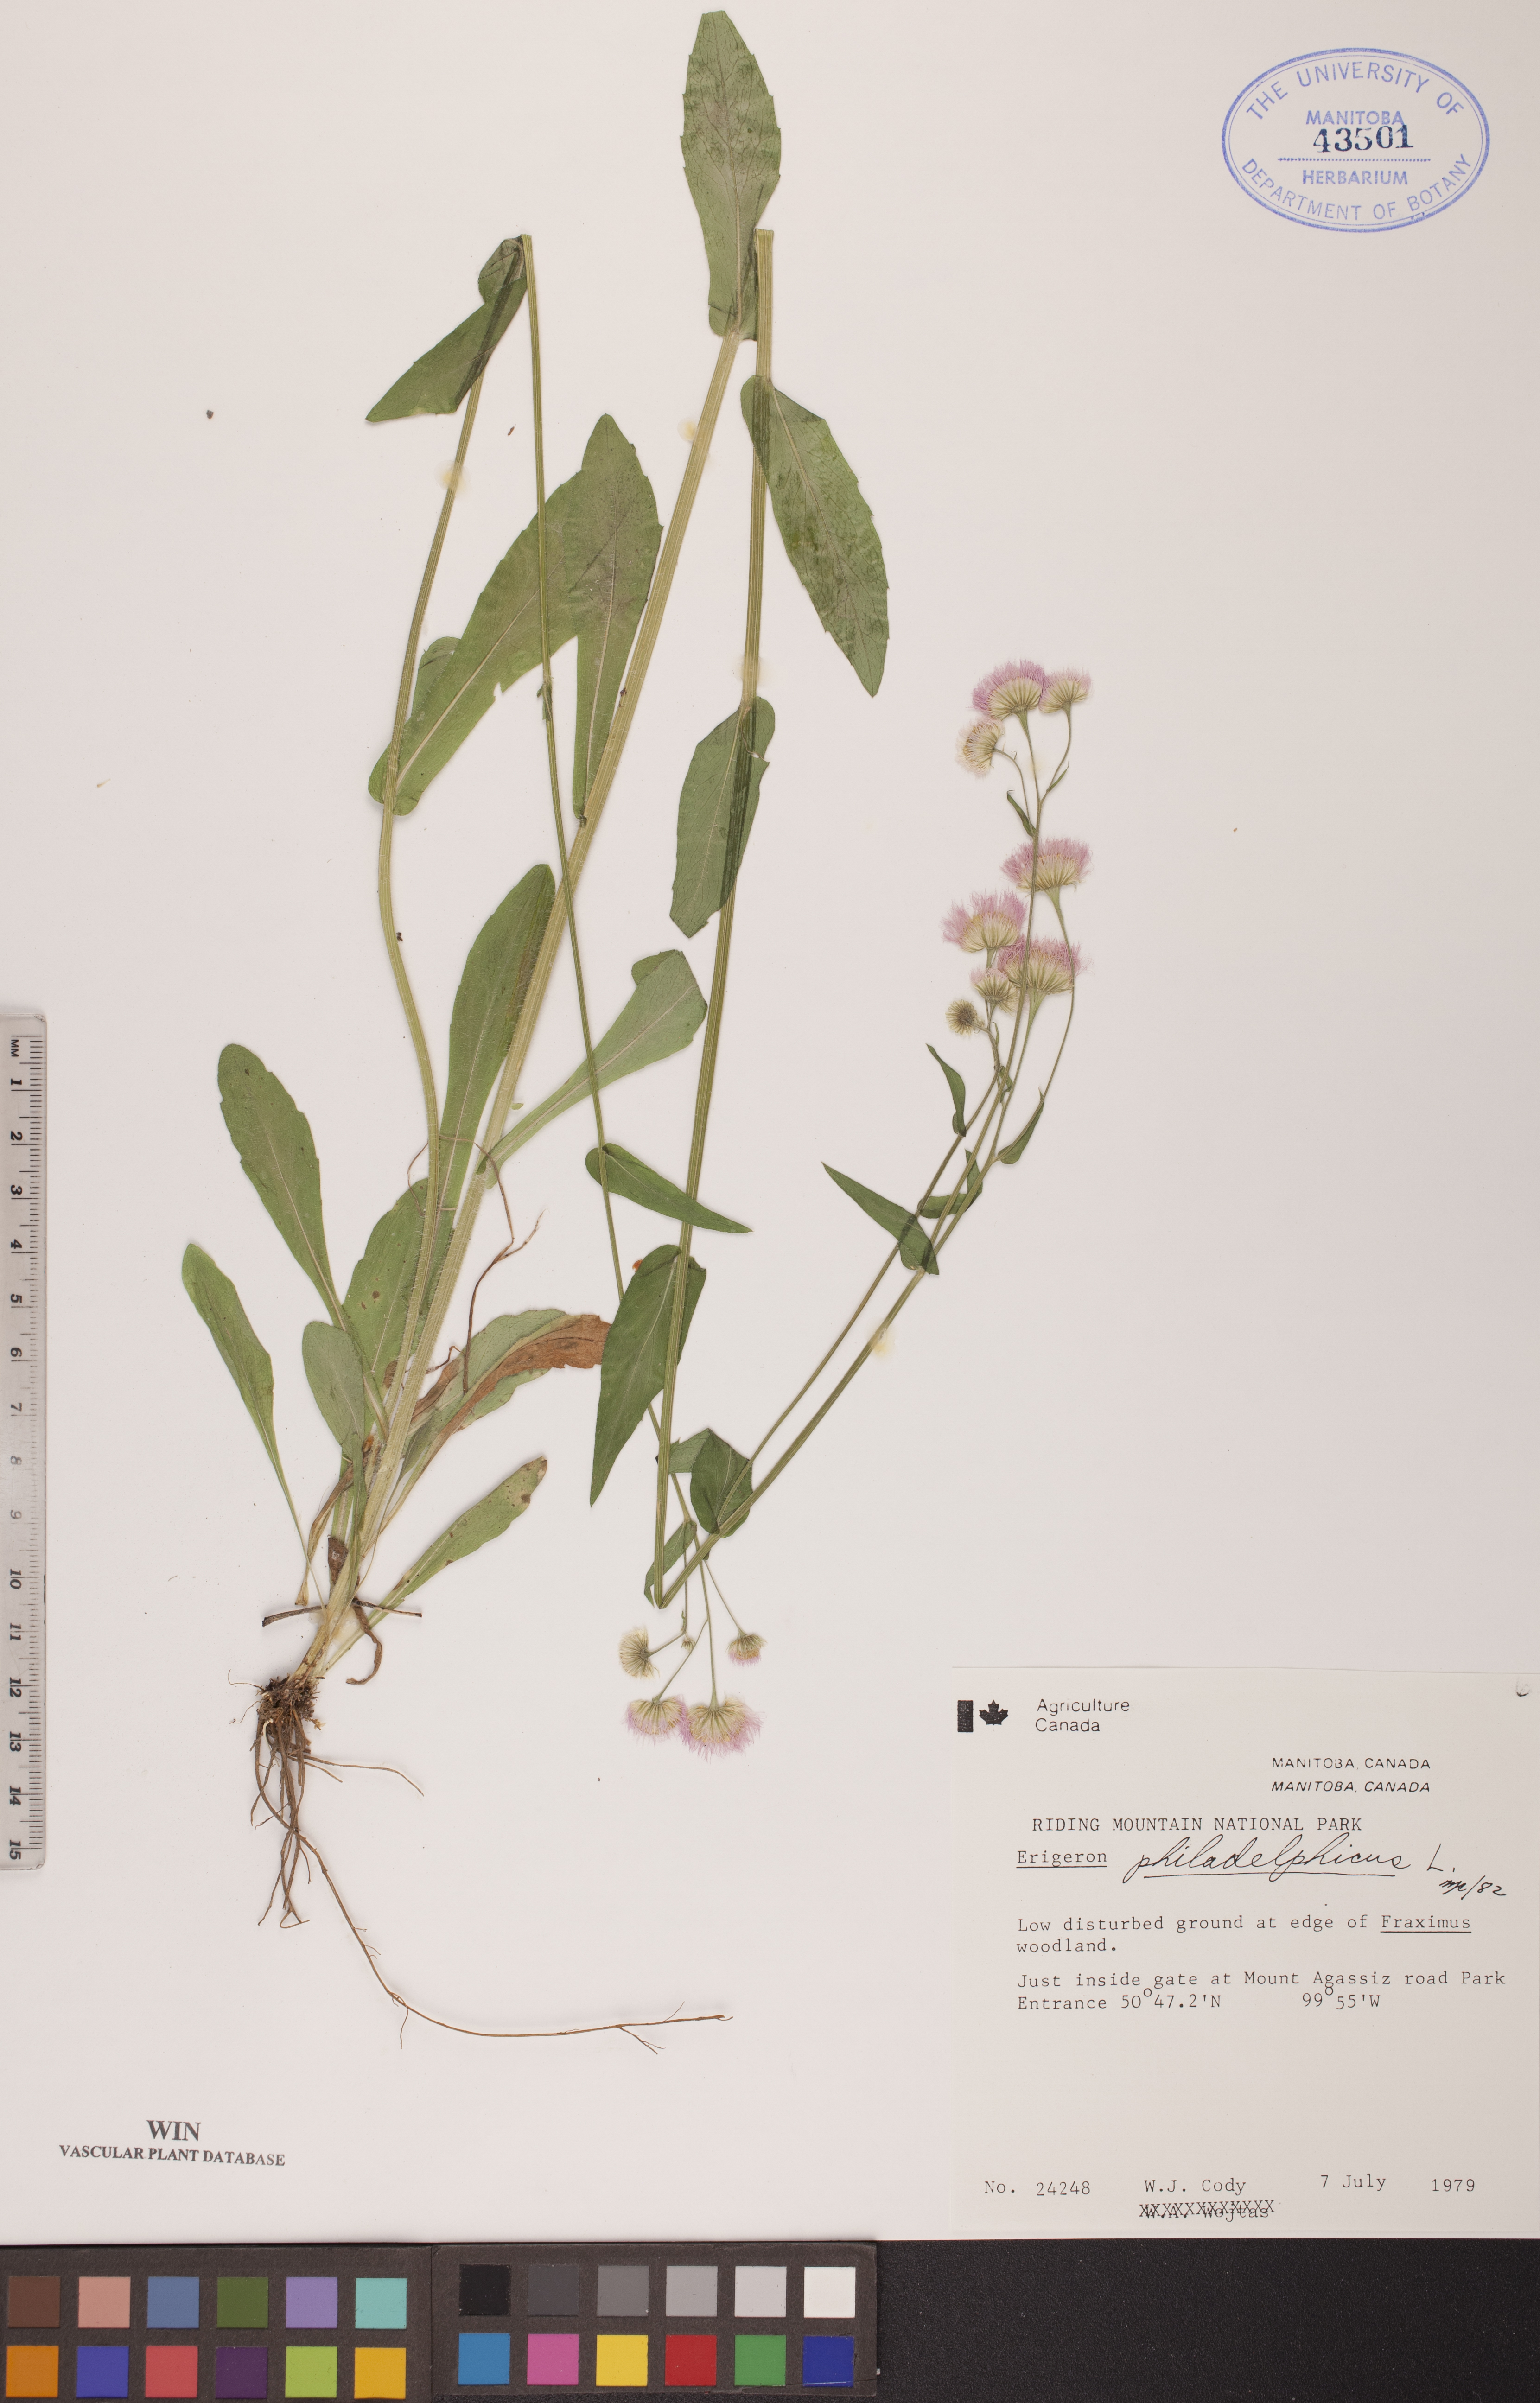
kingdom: Plantae
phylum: Tracheophyta
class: Magnoliopsida
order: Asterales
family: Asteraceae
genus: Erigeron
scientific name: Erigeron philadelphicus
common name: Robin's-plantain
